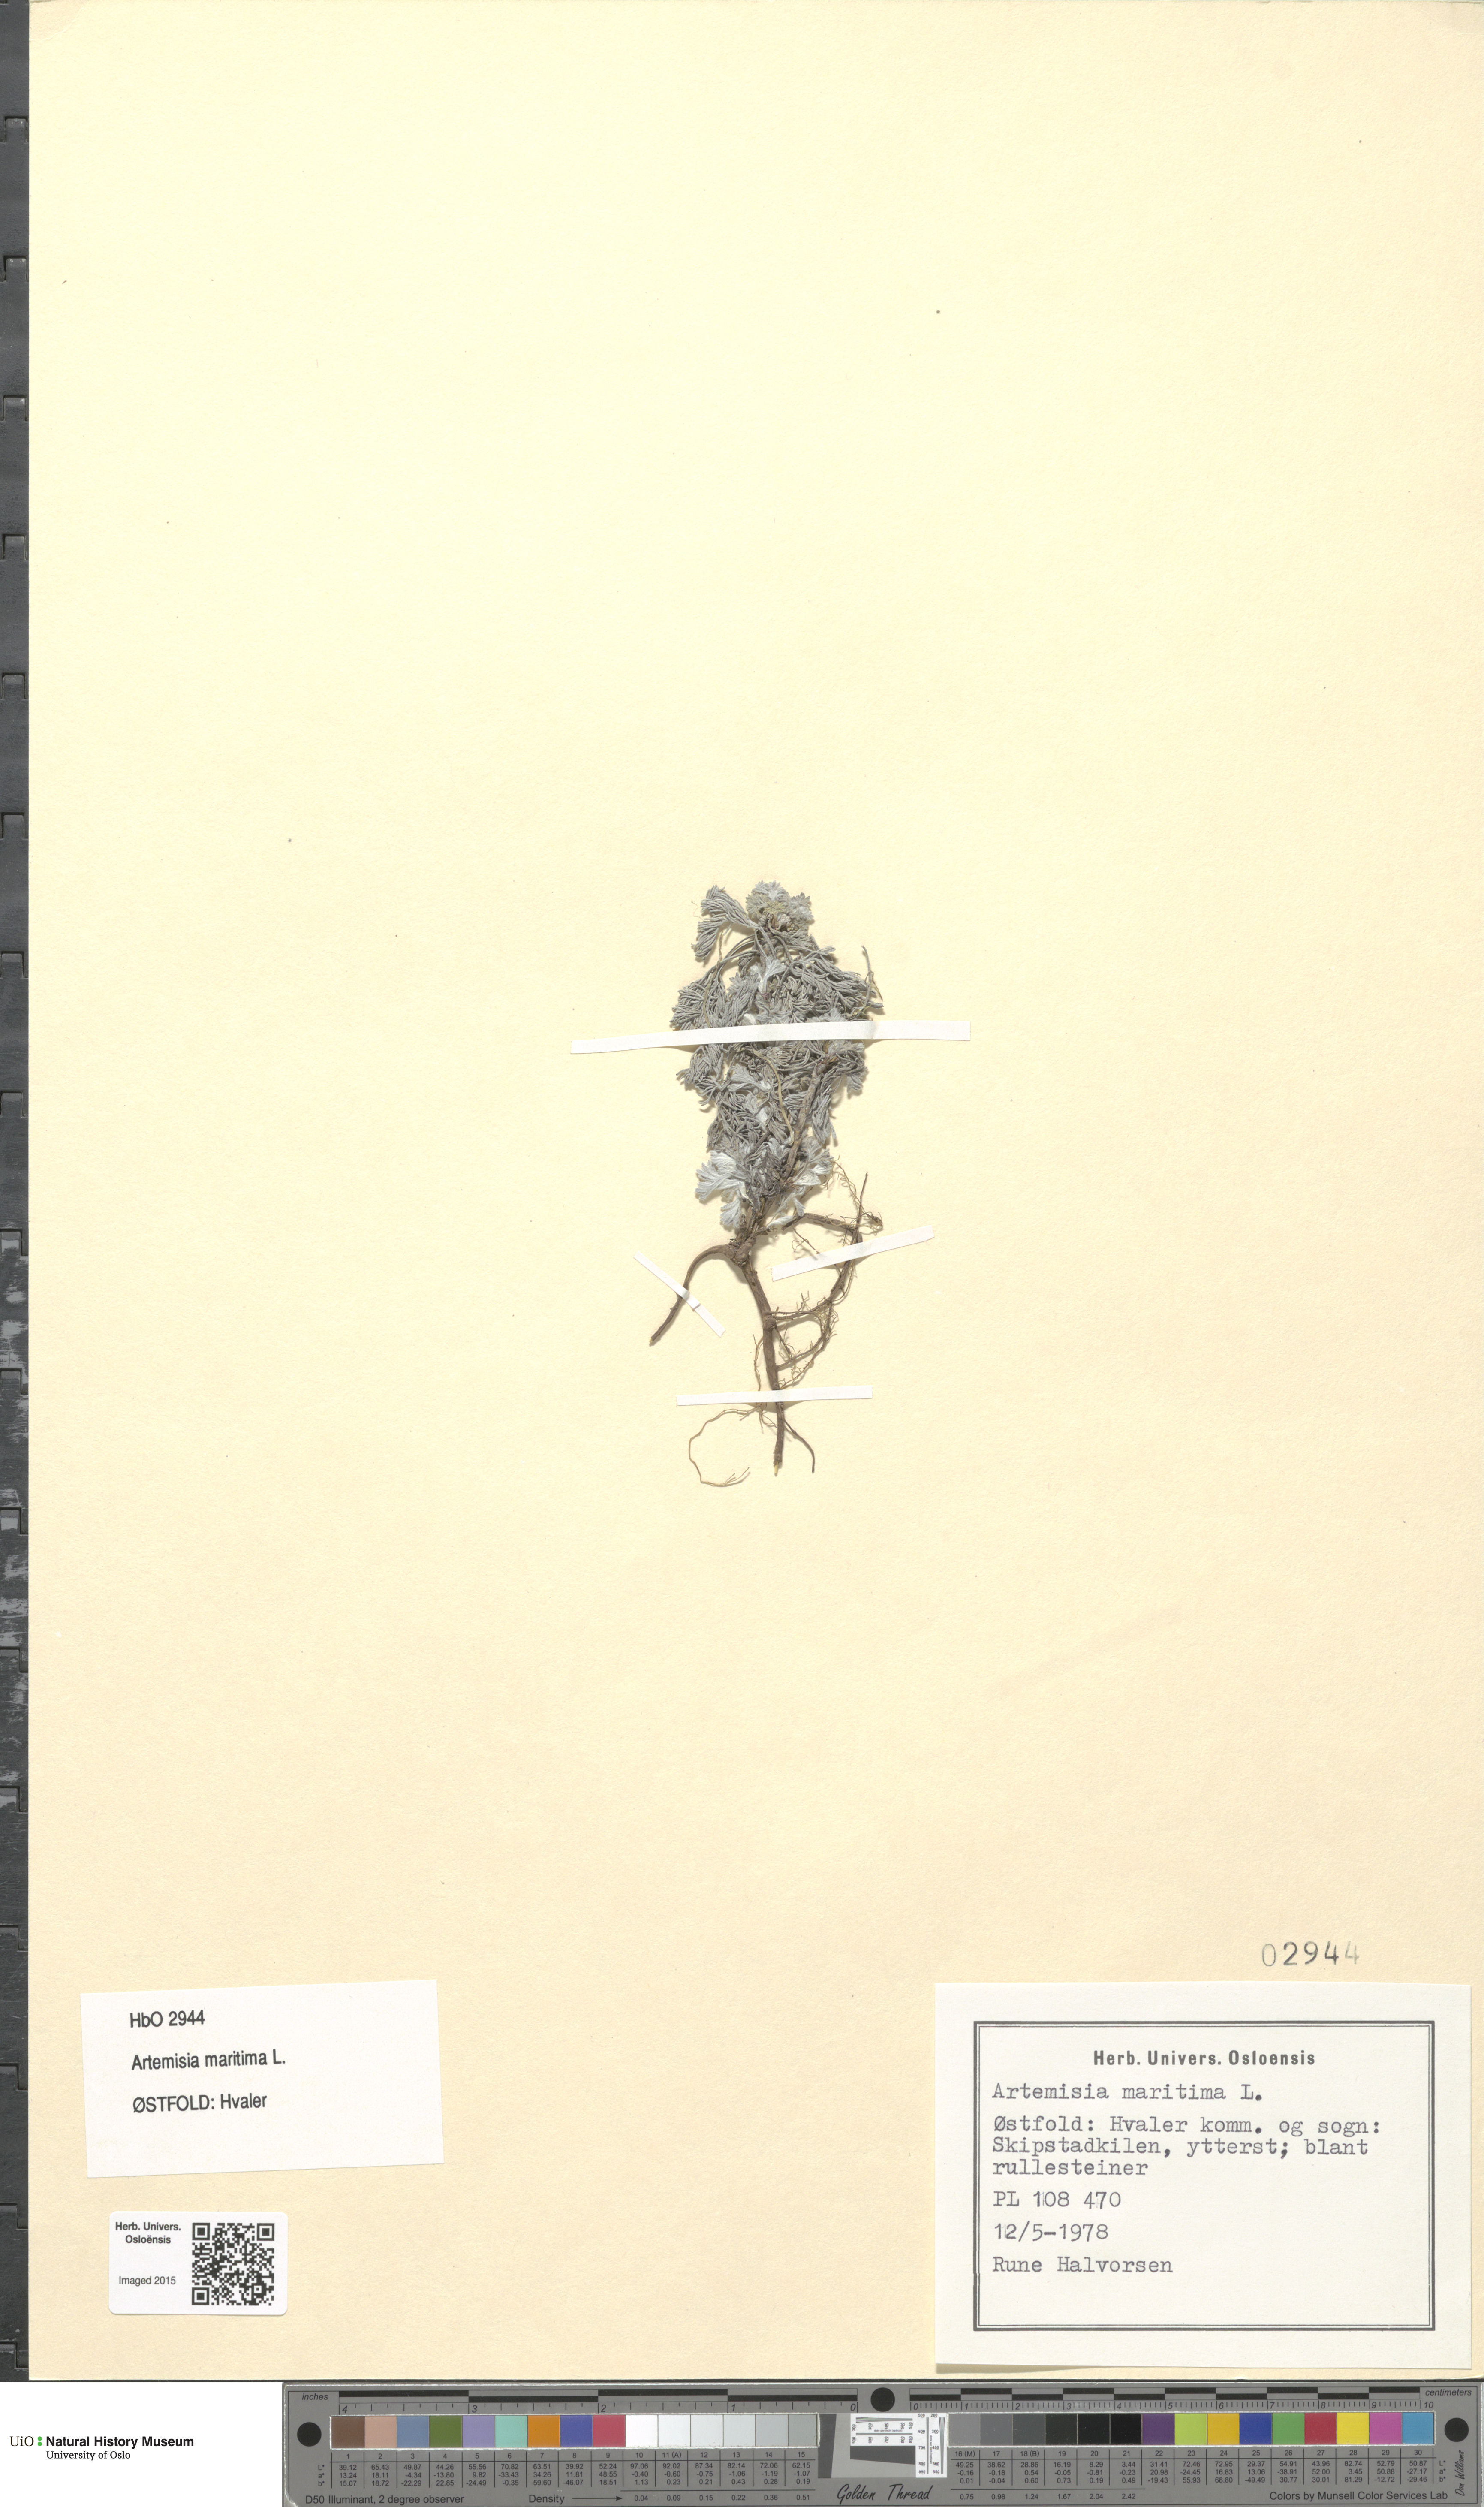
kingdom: Plantae
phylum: Tracheophyta
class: Magnoliopsida
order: Asterales
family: Asteraceae
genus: Artemisia
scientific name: Artemisia maritima
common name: Wormseed
